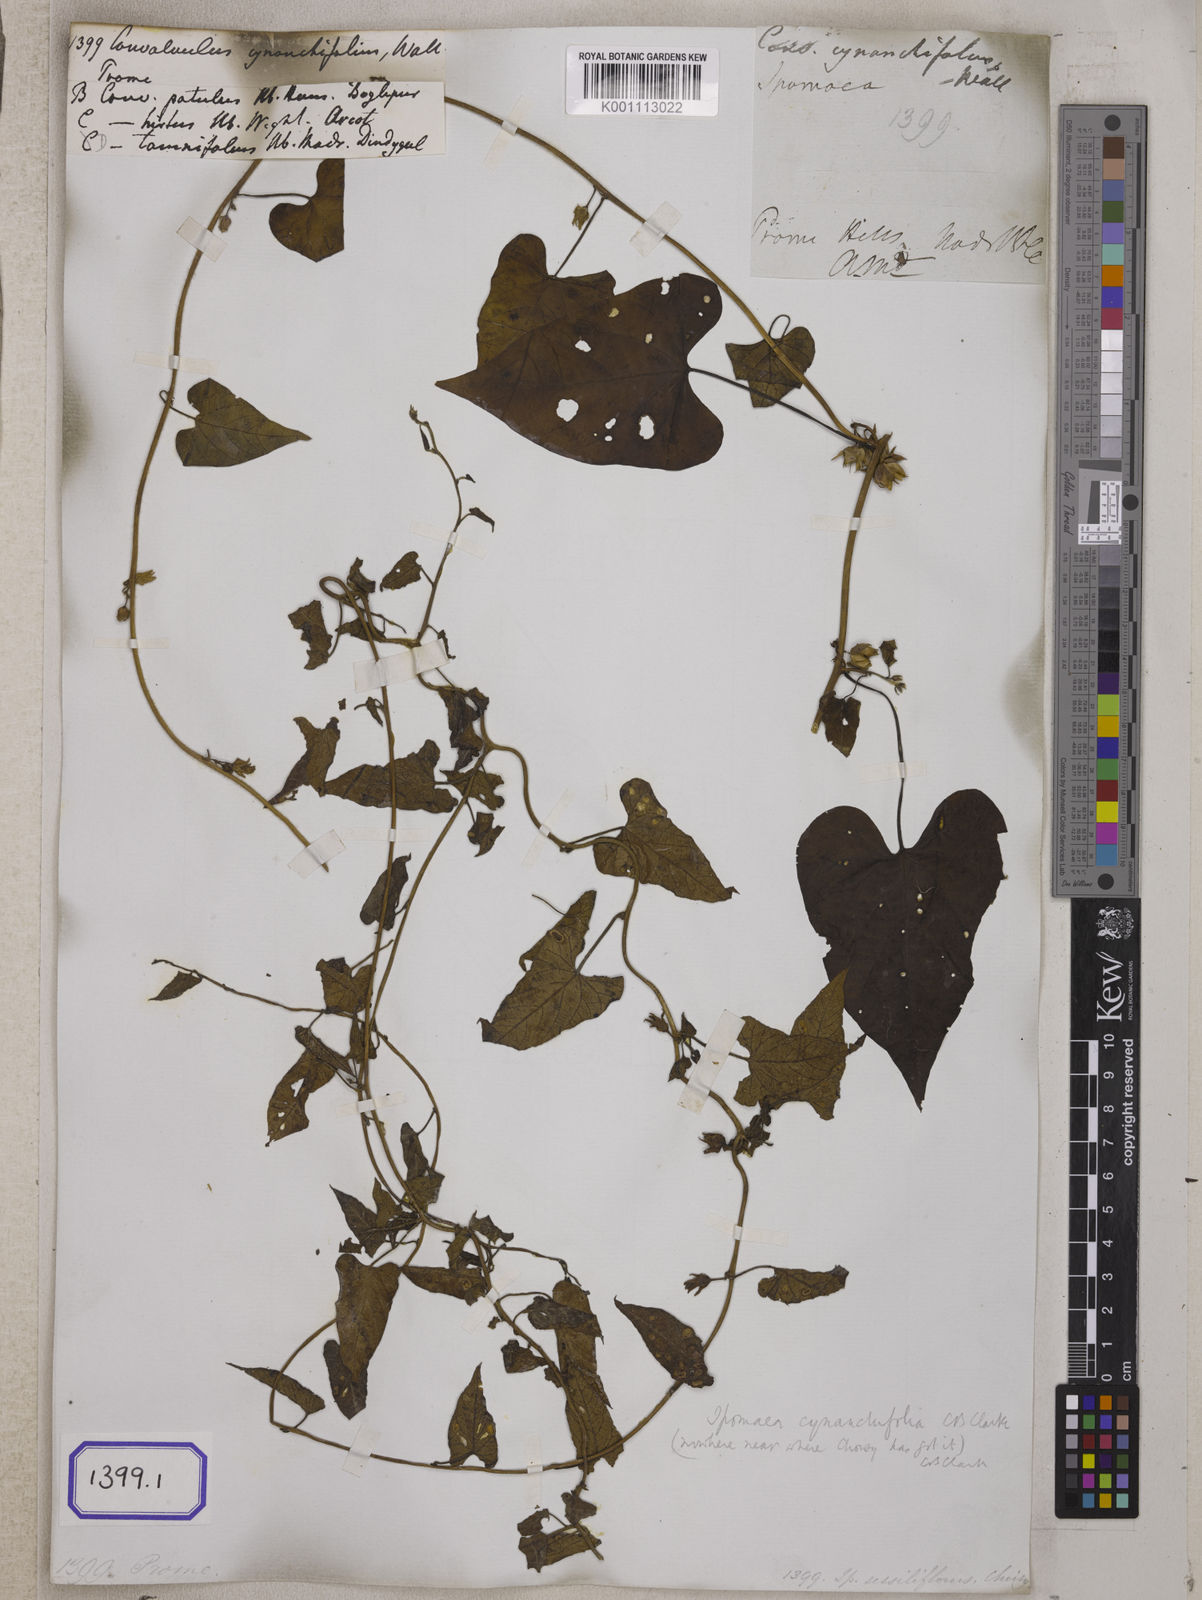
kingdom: Plantae
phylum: Tracheophyta
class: Magnoliopsida
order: Solanales
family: Convolvulaceae
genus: Convolvulus
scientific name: Convolvulus
